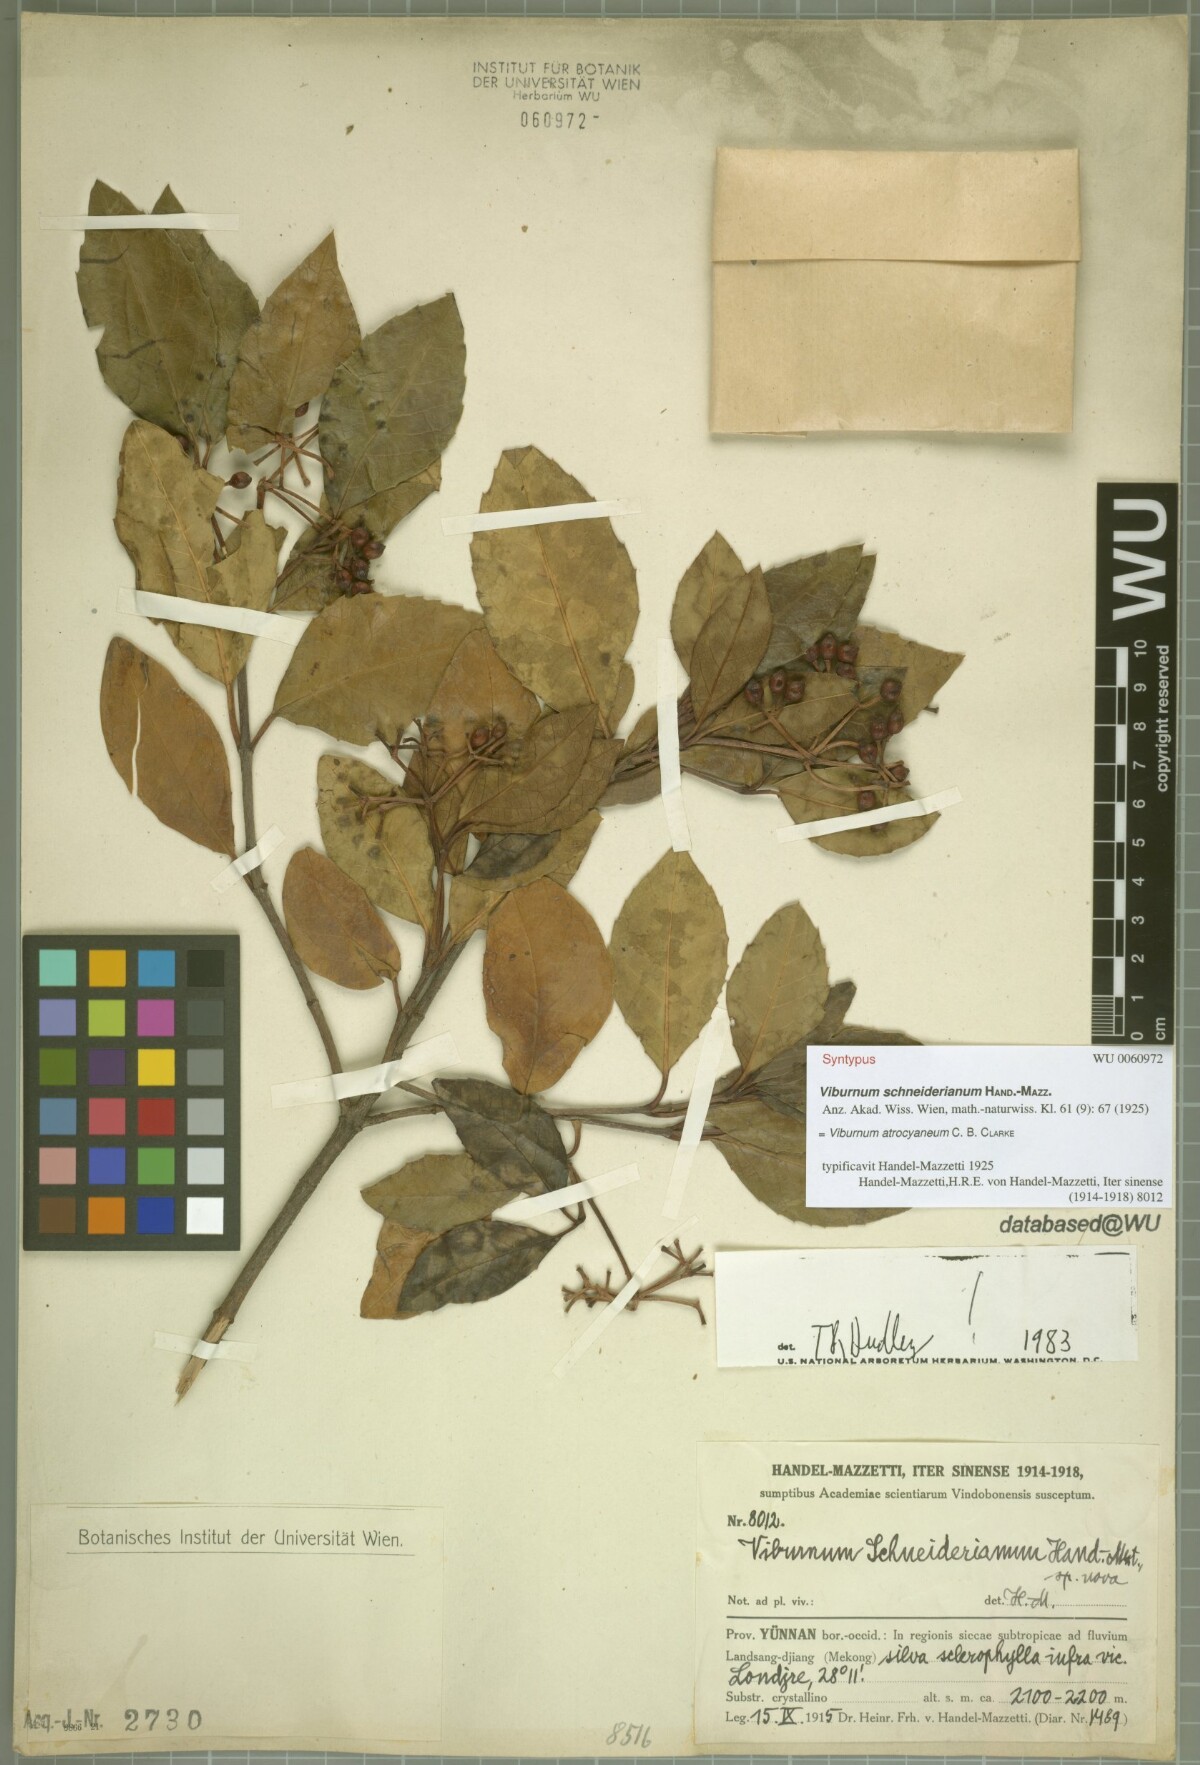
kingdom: Plantae
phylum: Tracheophyta
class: Magnoliopsida
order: Dipsacales
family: Viburnaceae
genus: Viburnum
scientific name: Viburnum atrocyaneum
